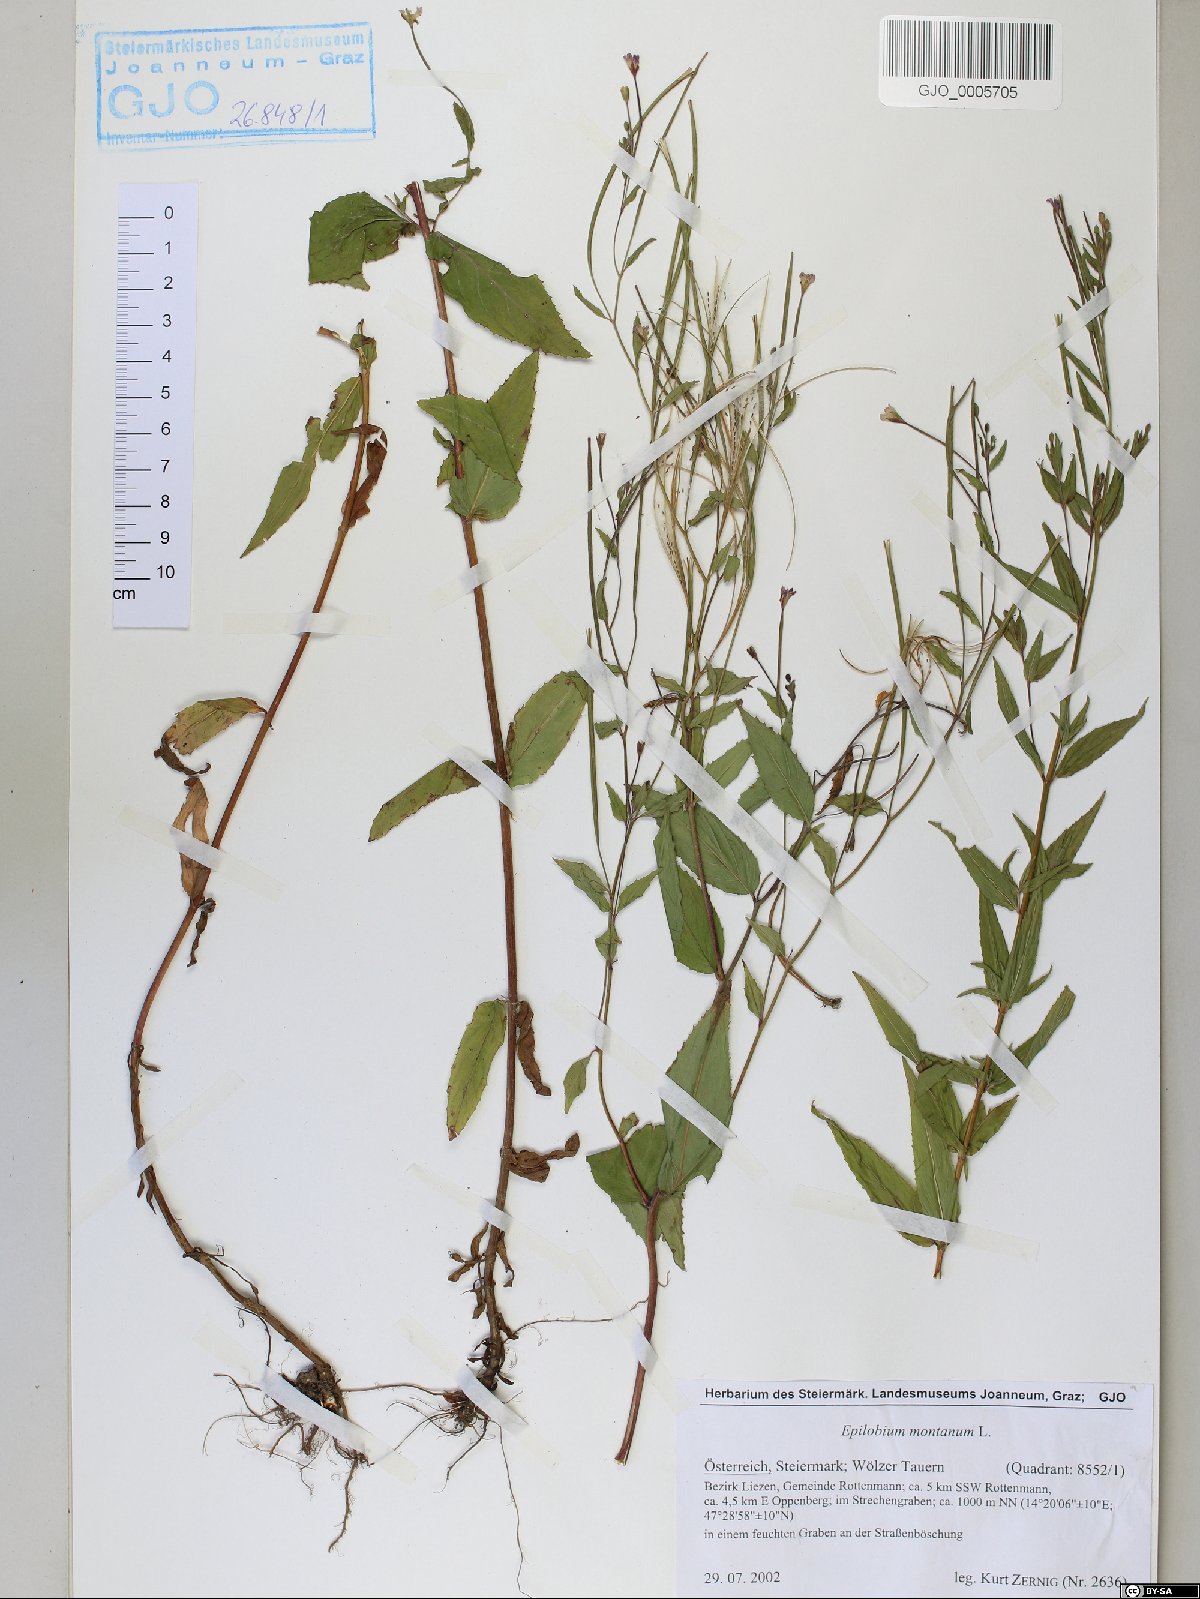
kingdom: Plantae
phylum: Tracheophyta
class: Magnoliopsida
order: Myrtales
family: Onagraceae
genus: Epilobium
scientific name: Epilobium montanum
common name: Broad-leaved willowherb
